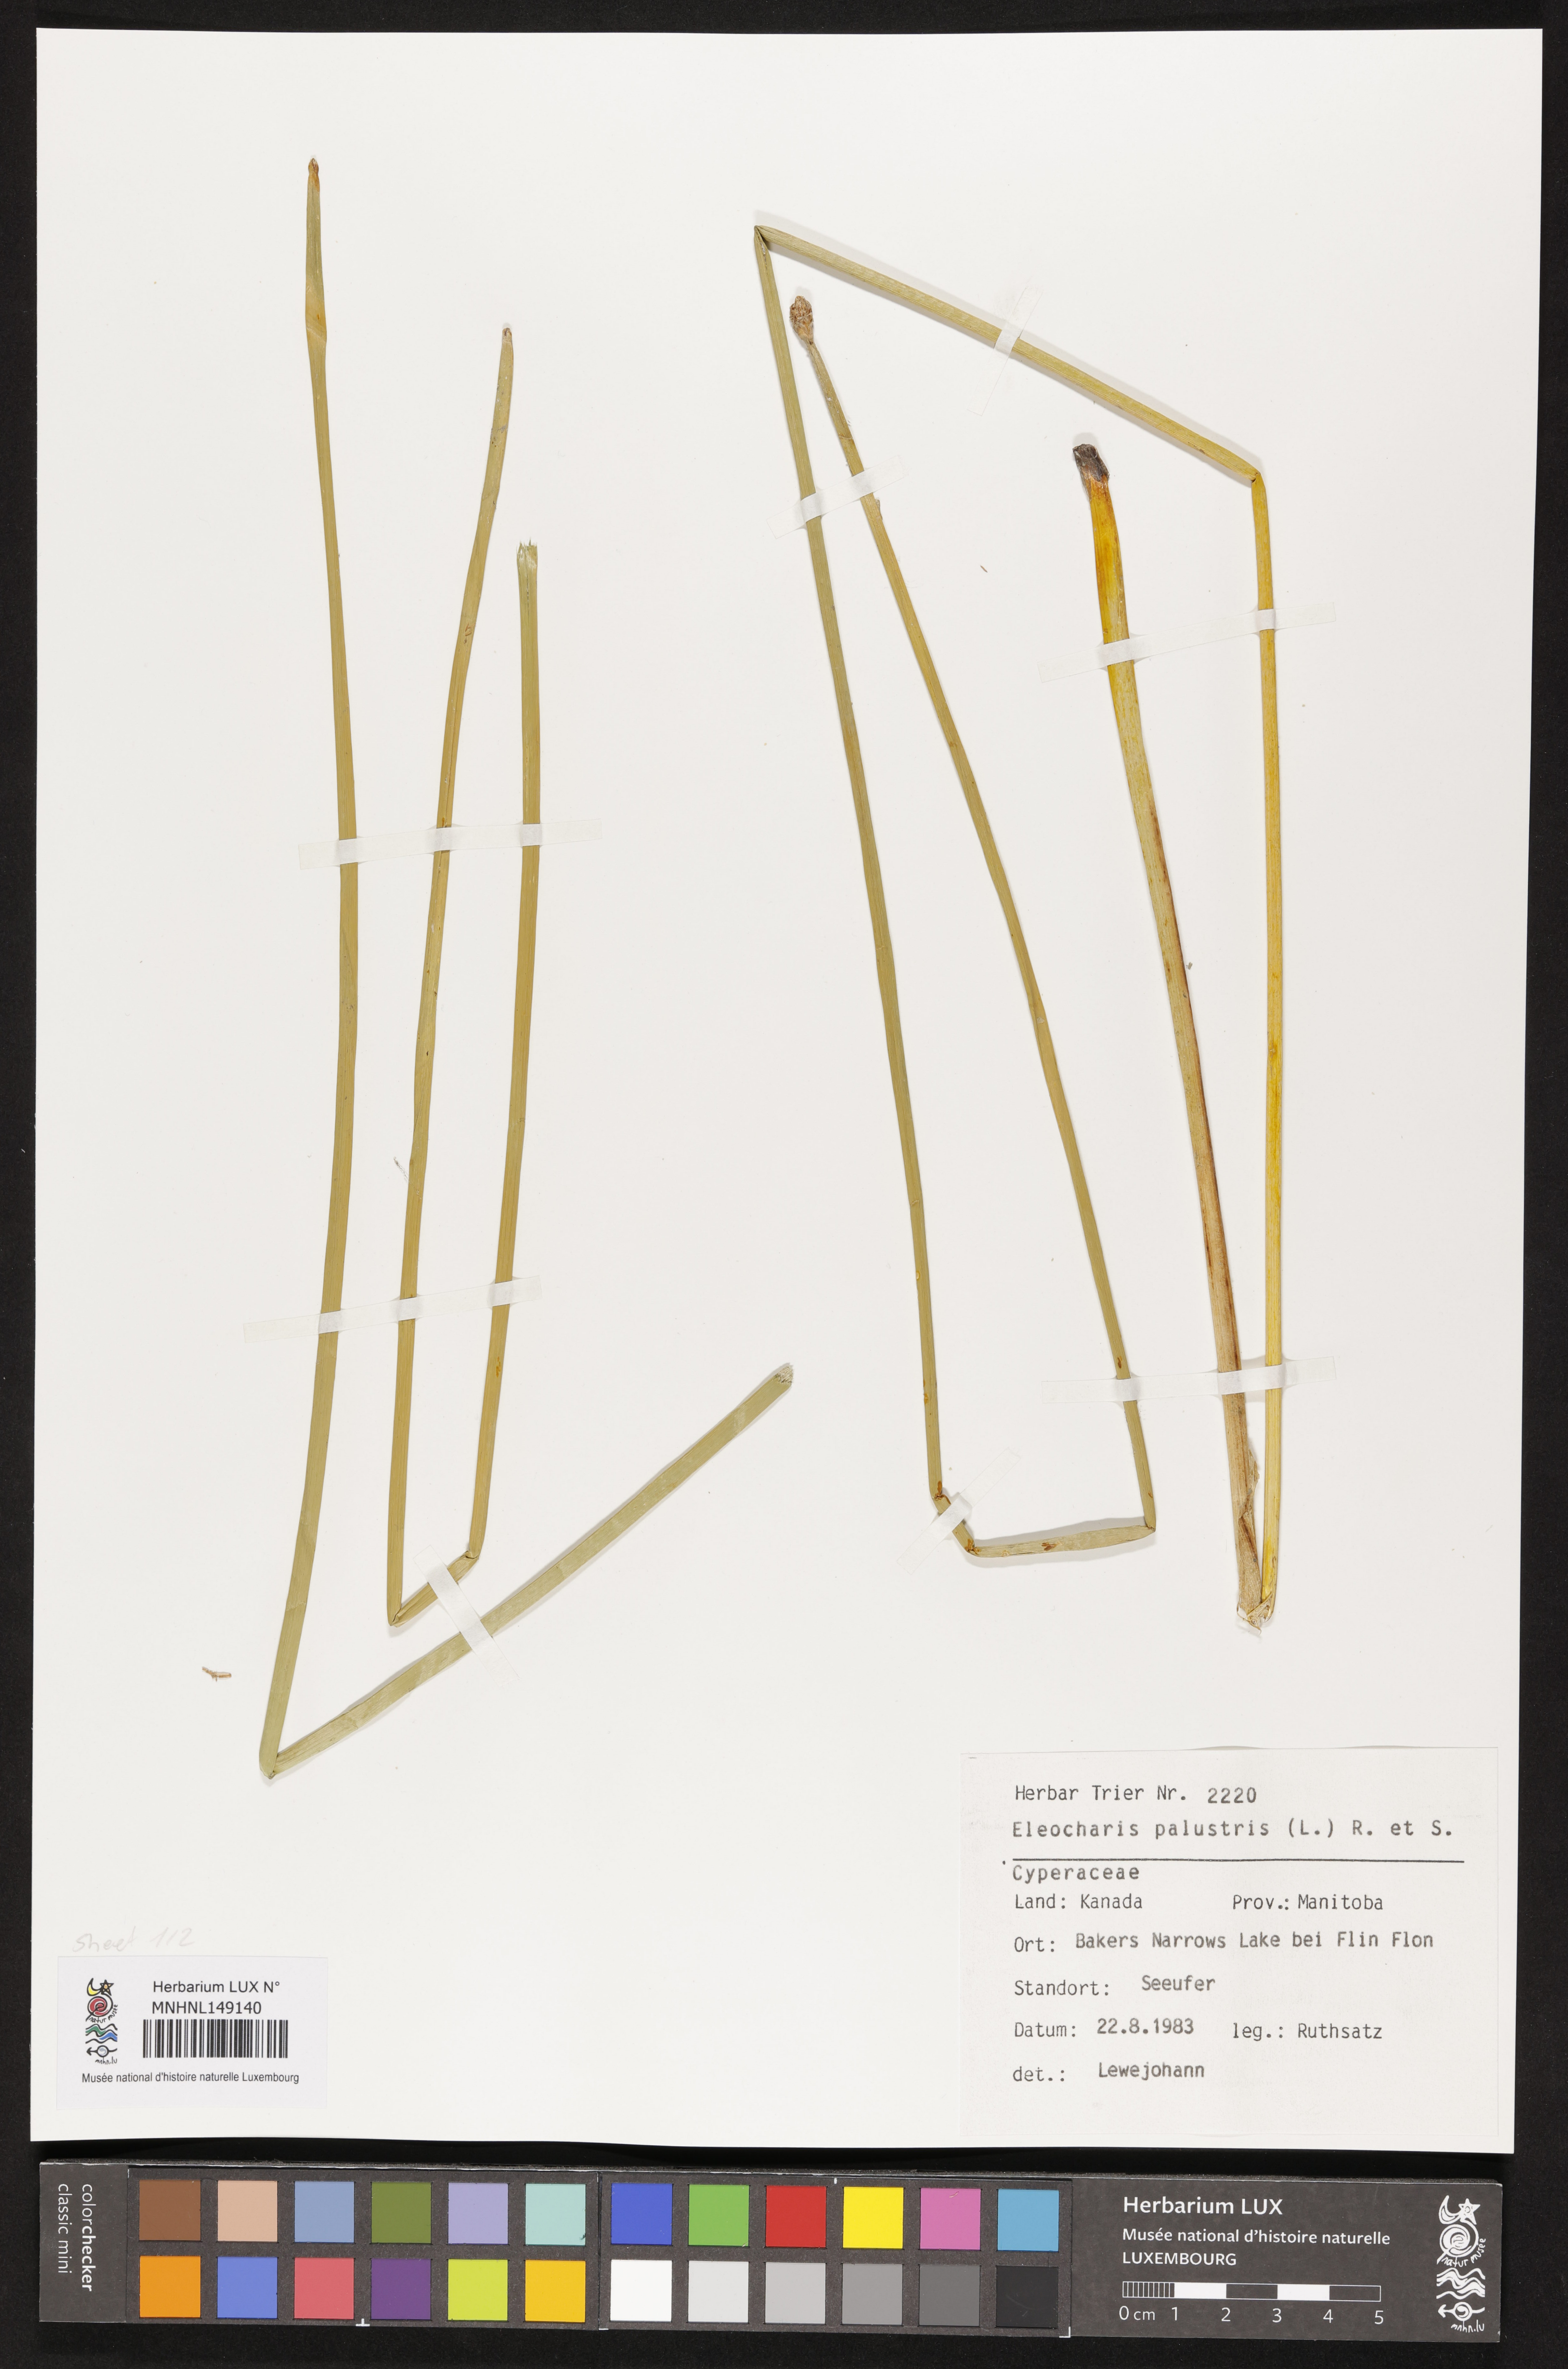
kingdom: Plantae
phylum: Tracheophyta
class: Liliopsida
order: Poales
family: Cyperaceae
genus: Eleocharis
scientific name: Eleocharis palustris
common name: Common spike-rush
